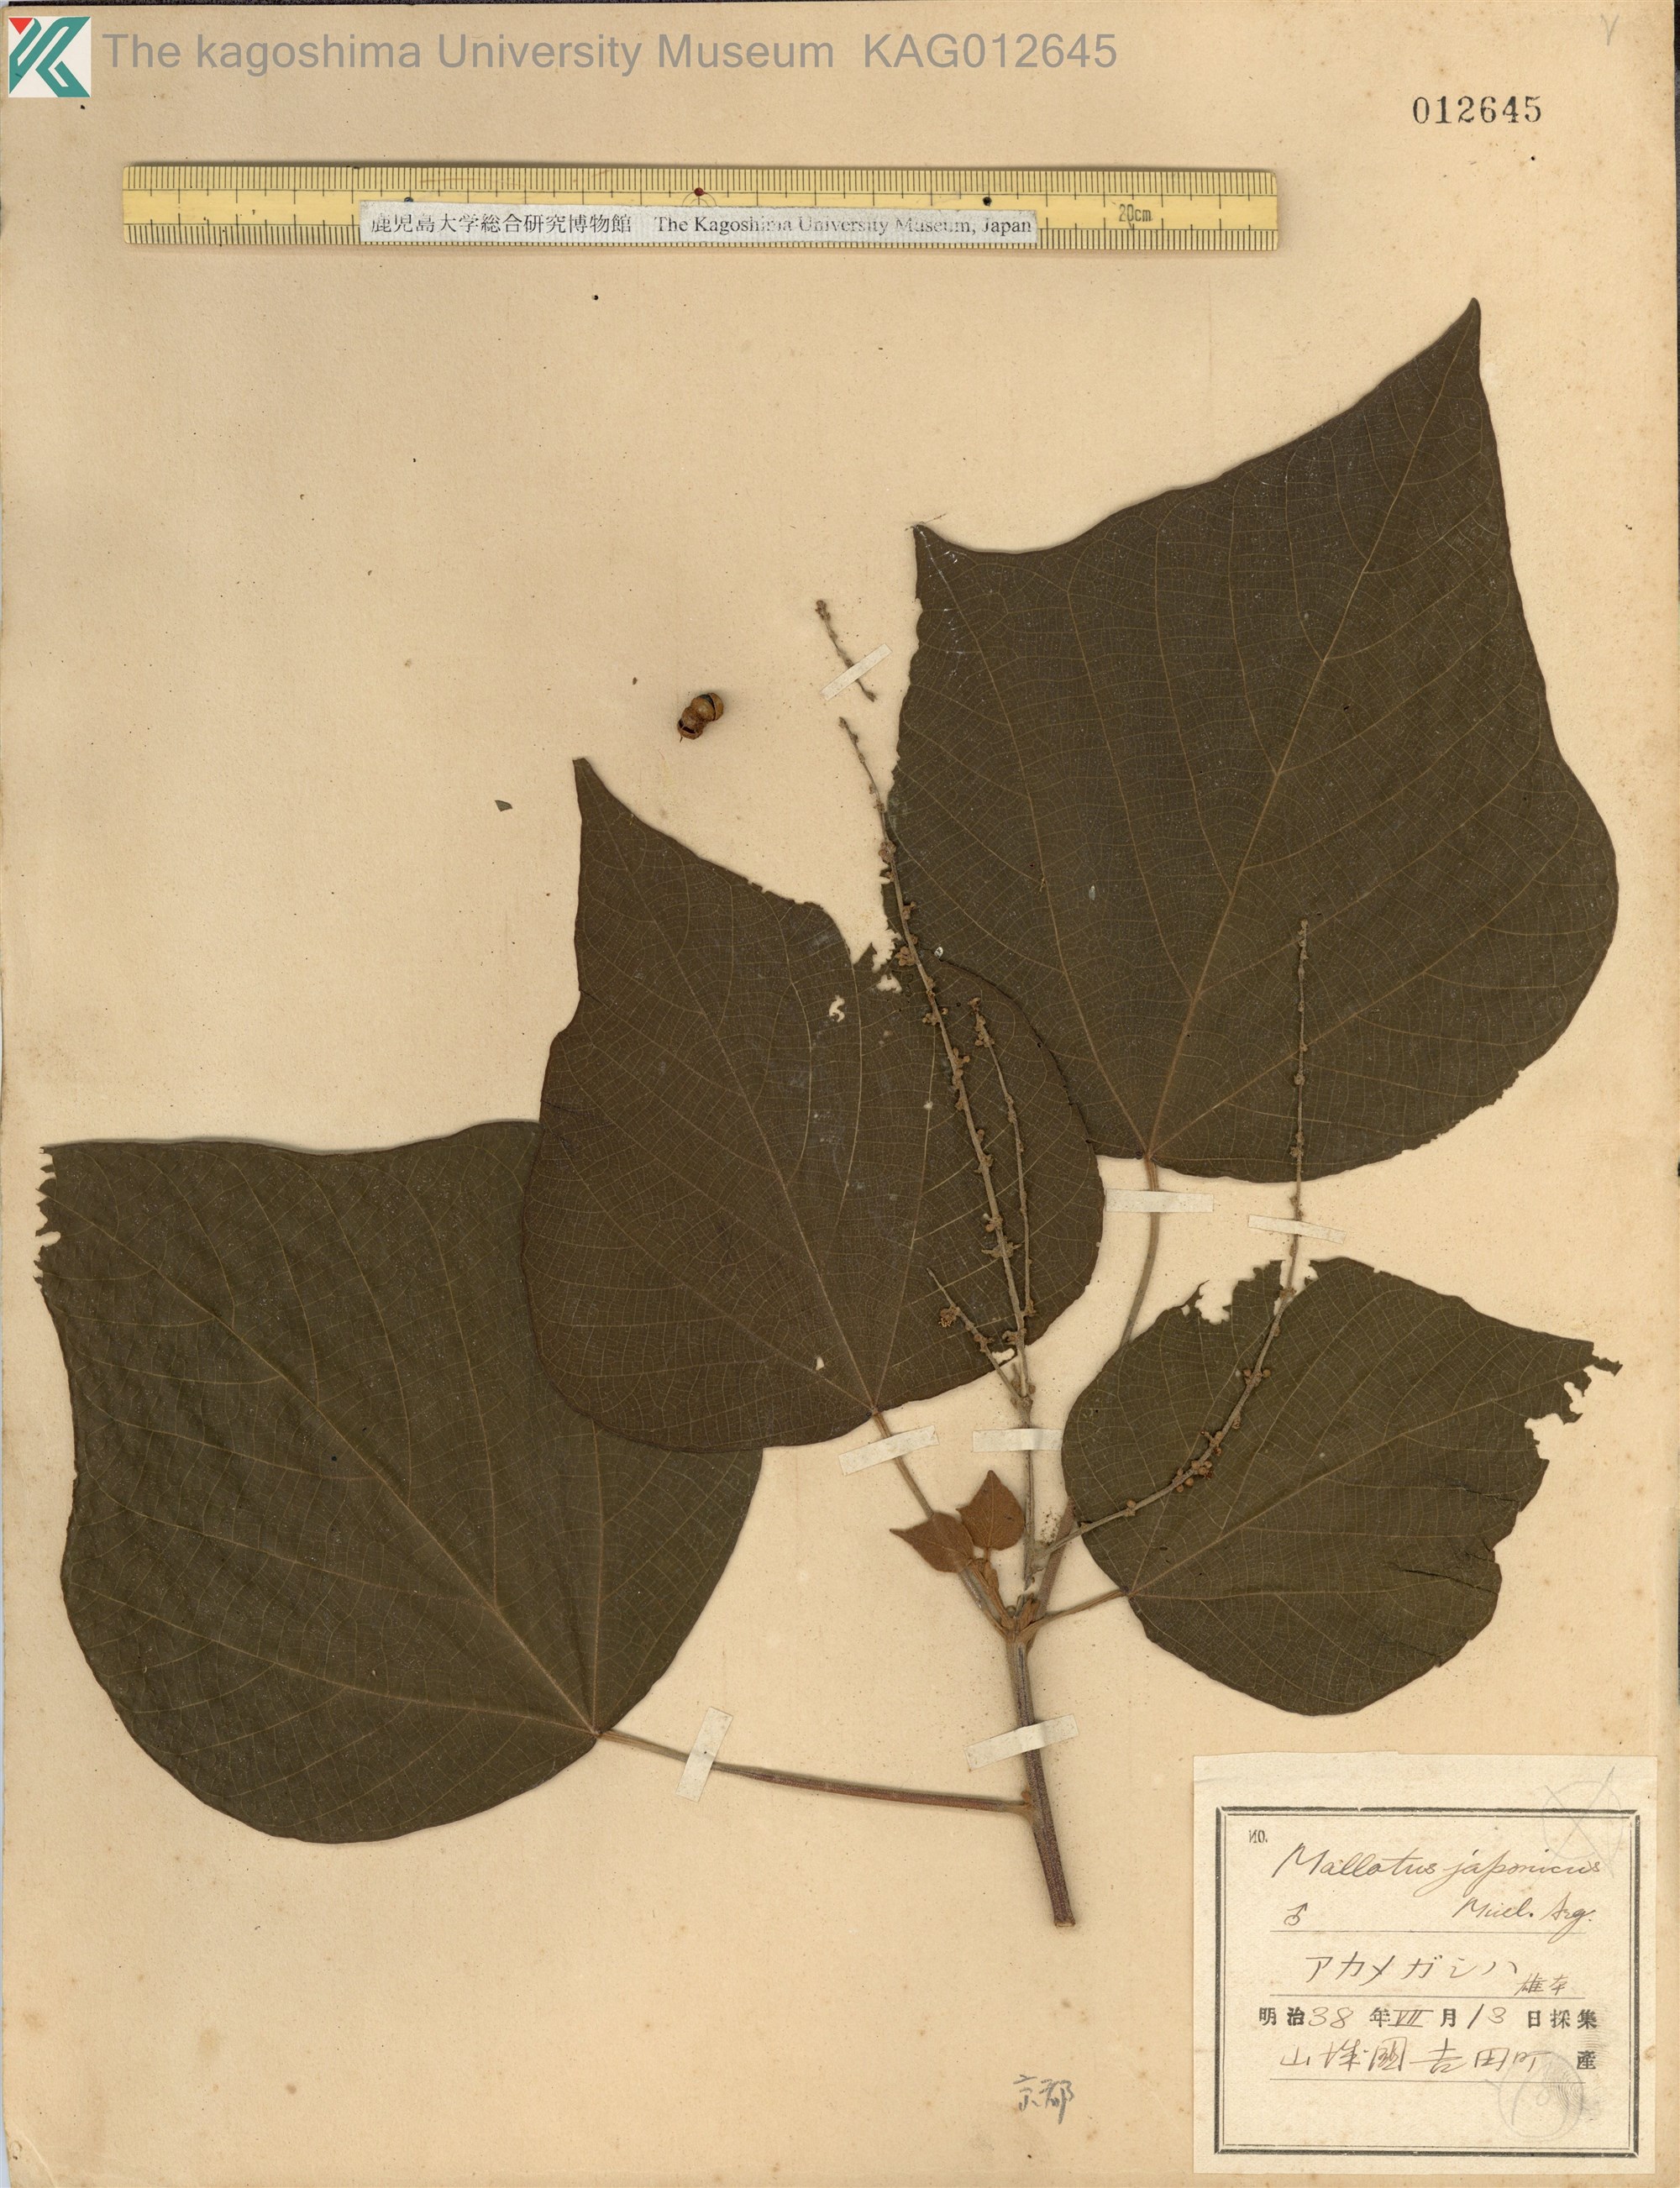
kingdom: Plantae
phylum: Tracheophyta
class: Magnoliopsida
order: Malpighiales
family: Euphorbiaceae
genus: Mallotus
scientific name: Mallotus japonicus
